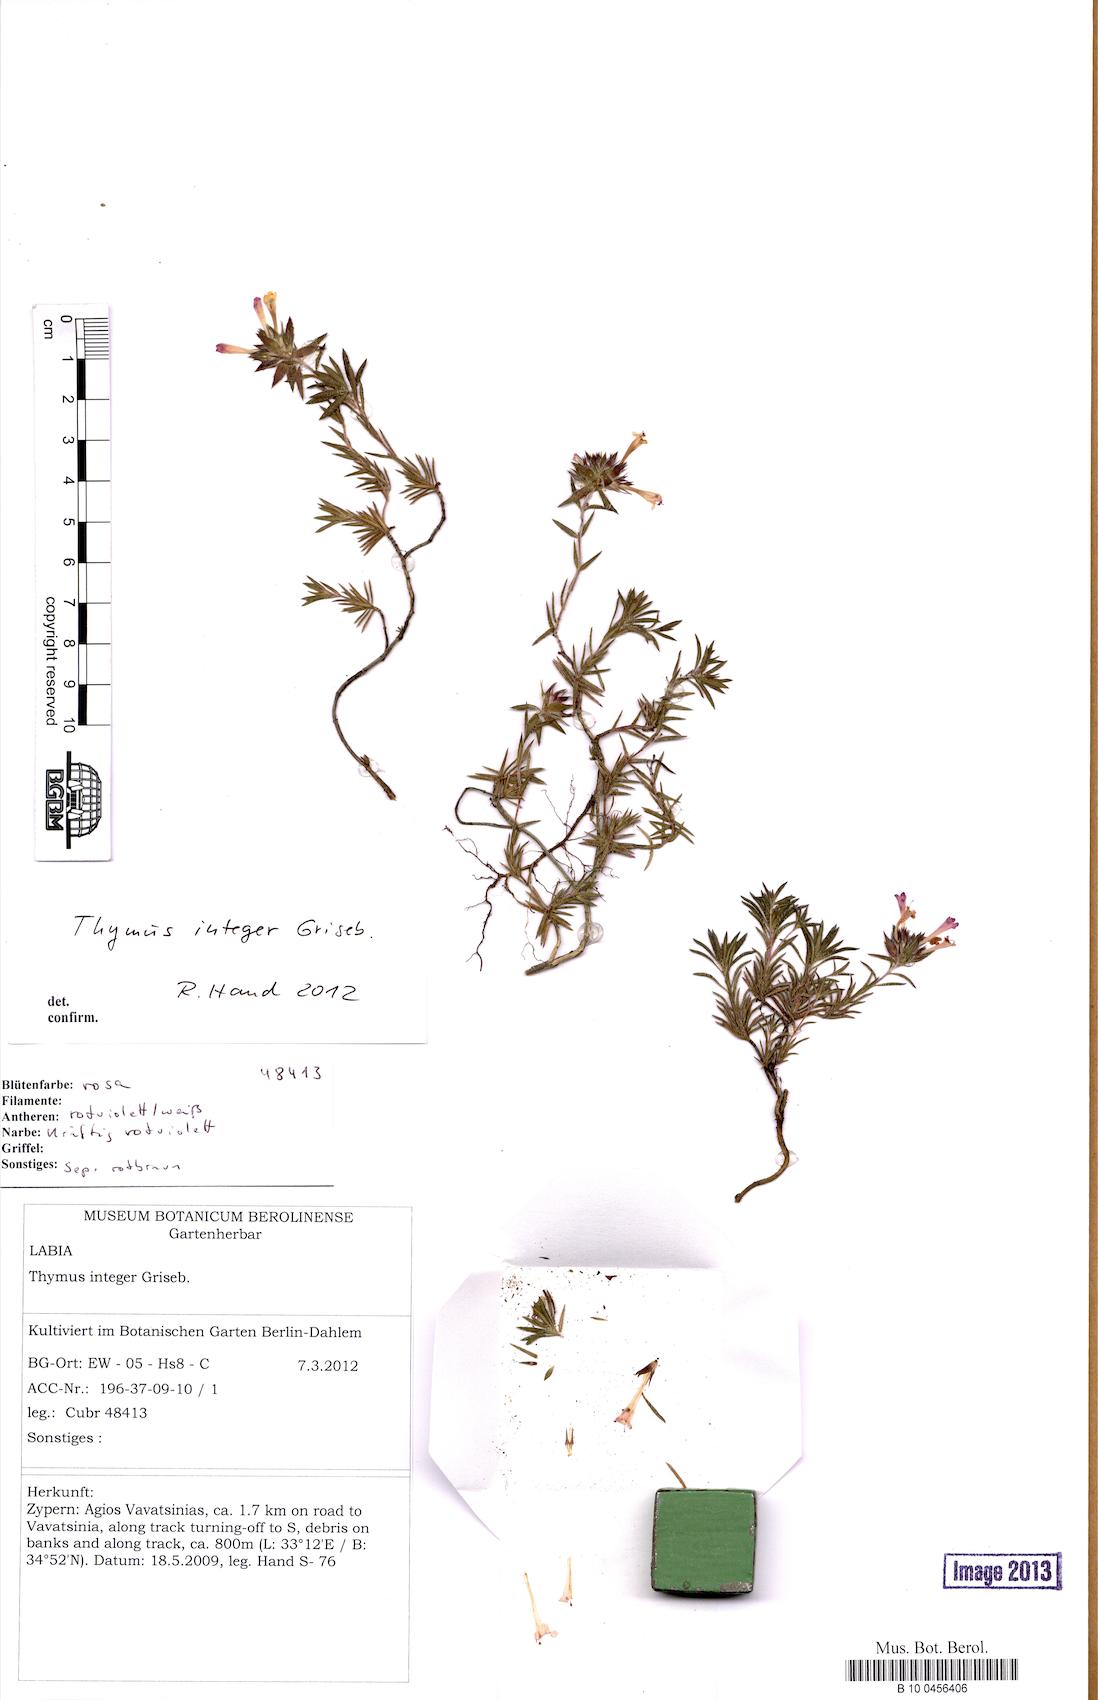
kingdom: Plantae
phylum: Tracheophyta
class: Magnoliopsida
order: Lamiales
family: Lamiaceae
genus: Thymus
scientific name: Thymus integer
